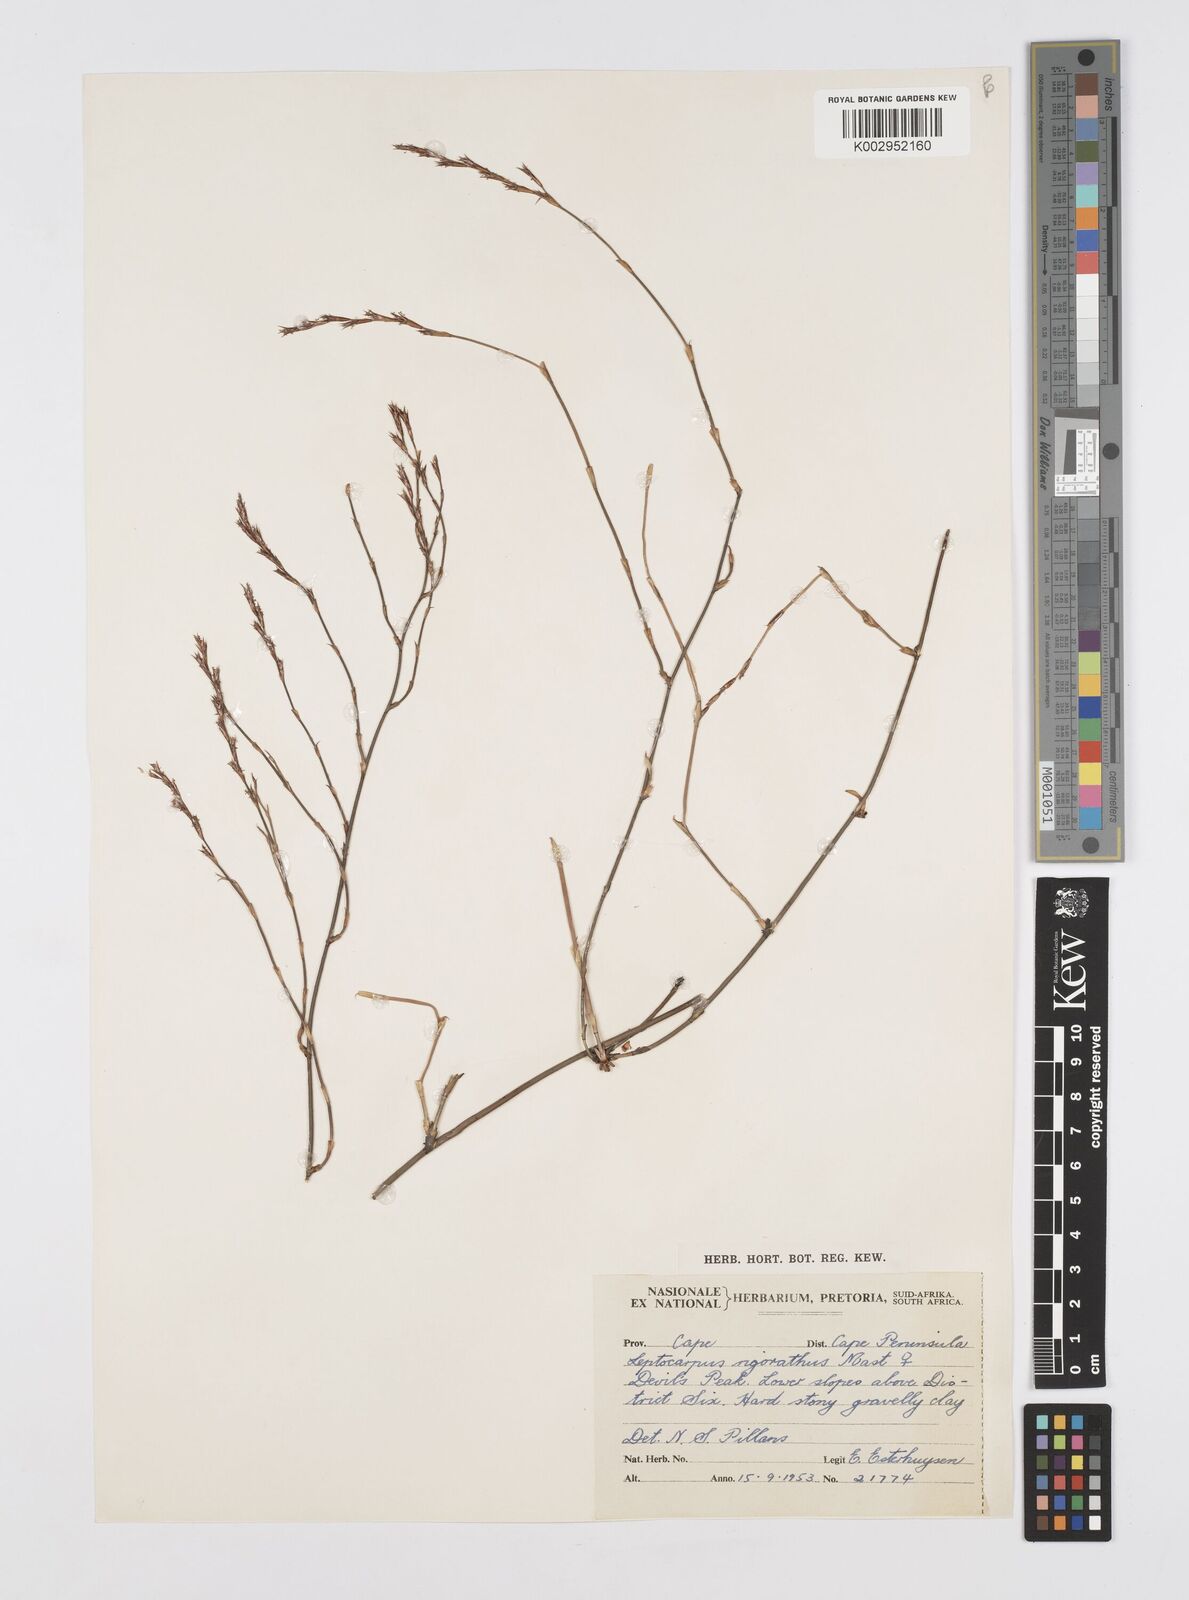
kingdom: Plantae
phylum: Tracheophyta
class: Liliopsida
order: Poales
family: Restionaceae
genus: Restio
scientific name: Restio rigoratus
